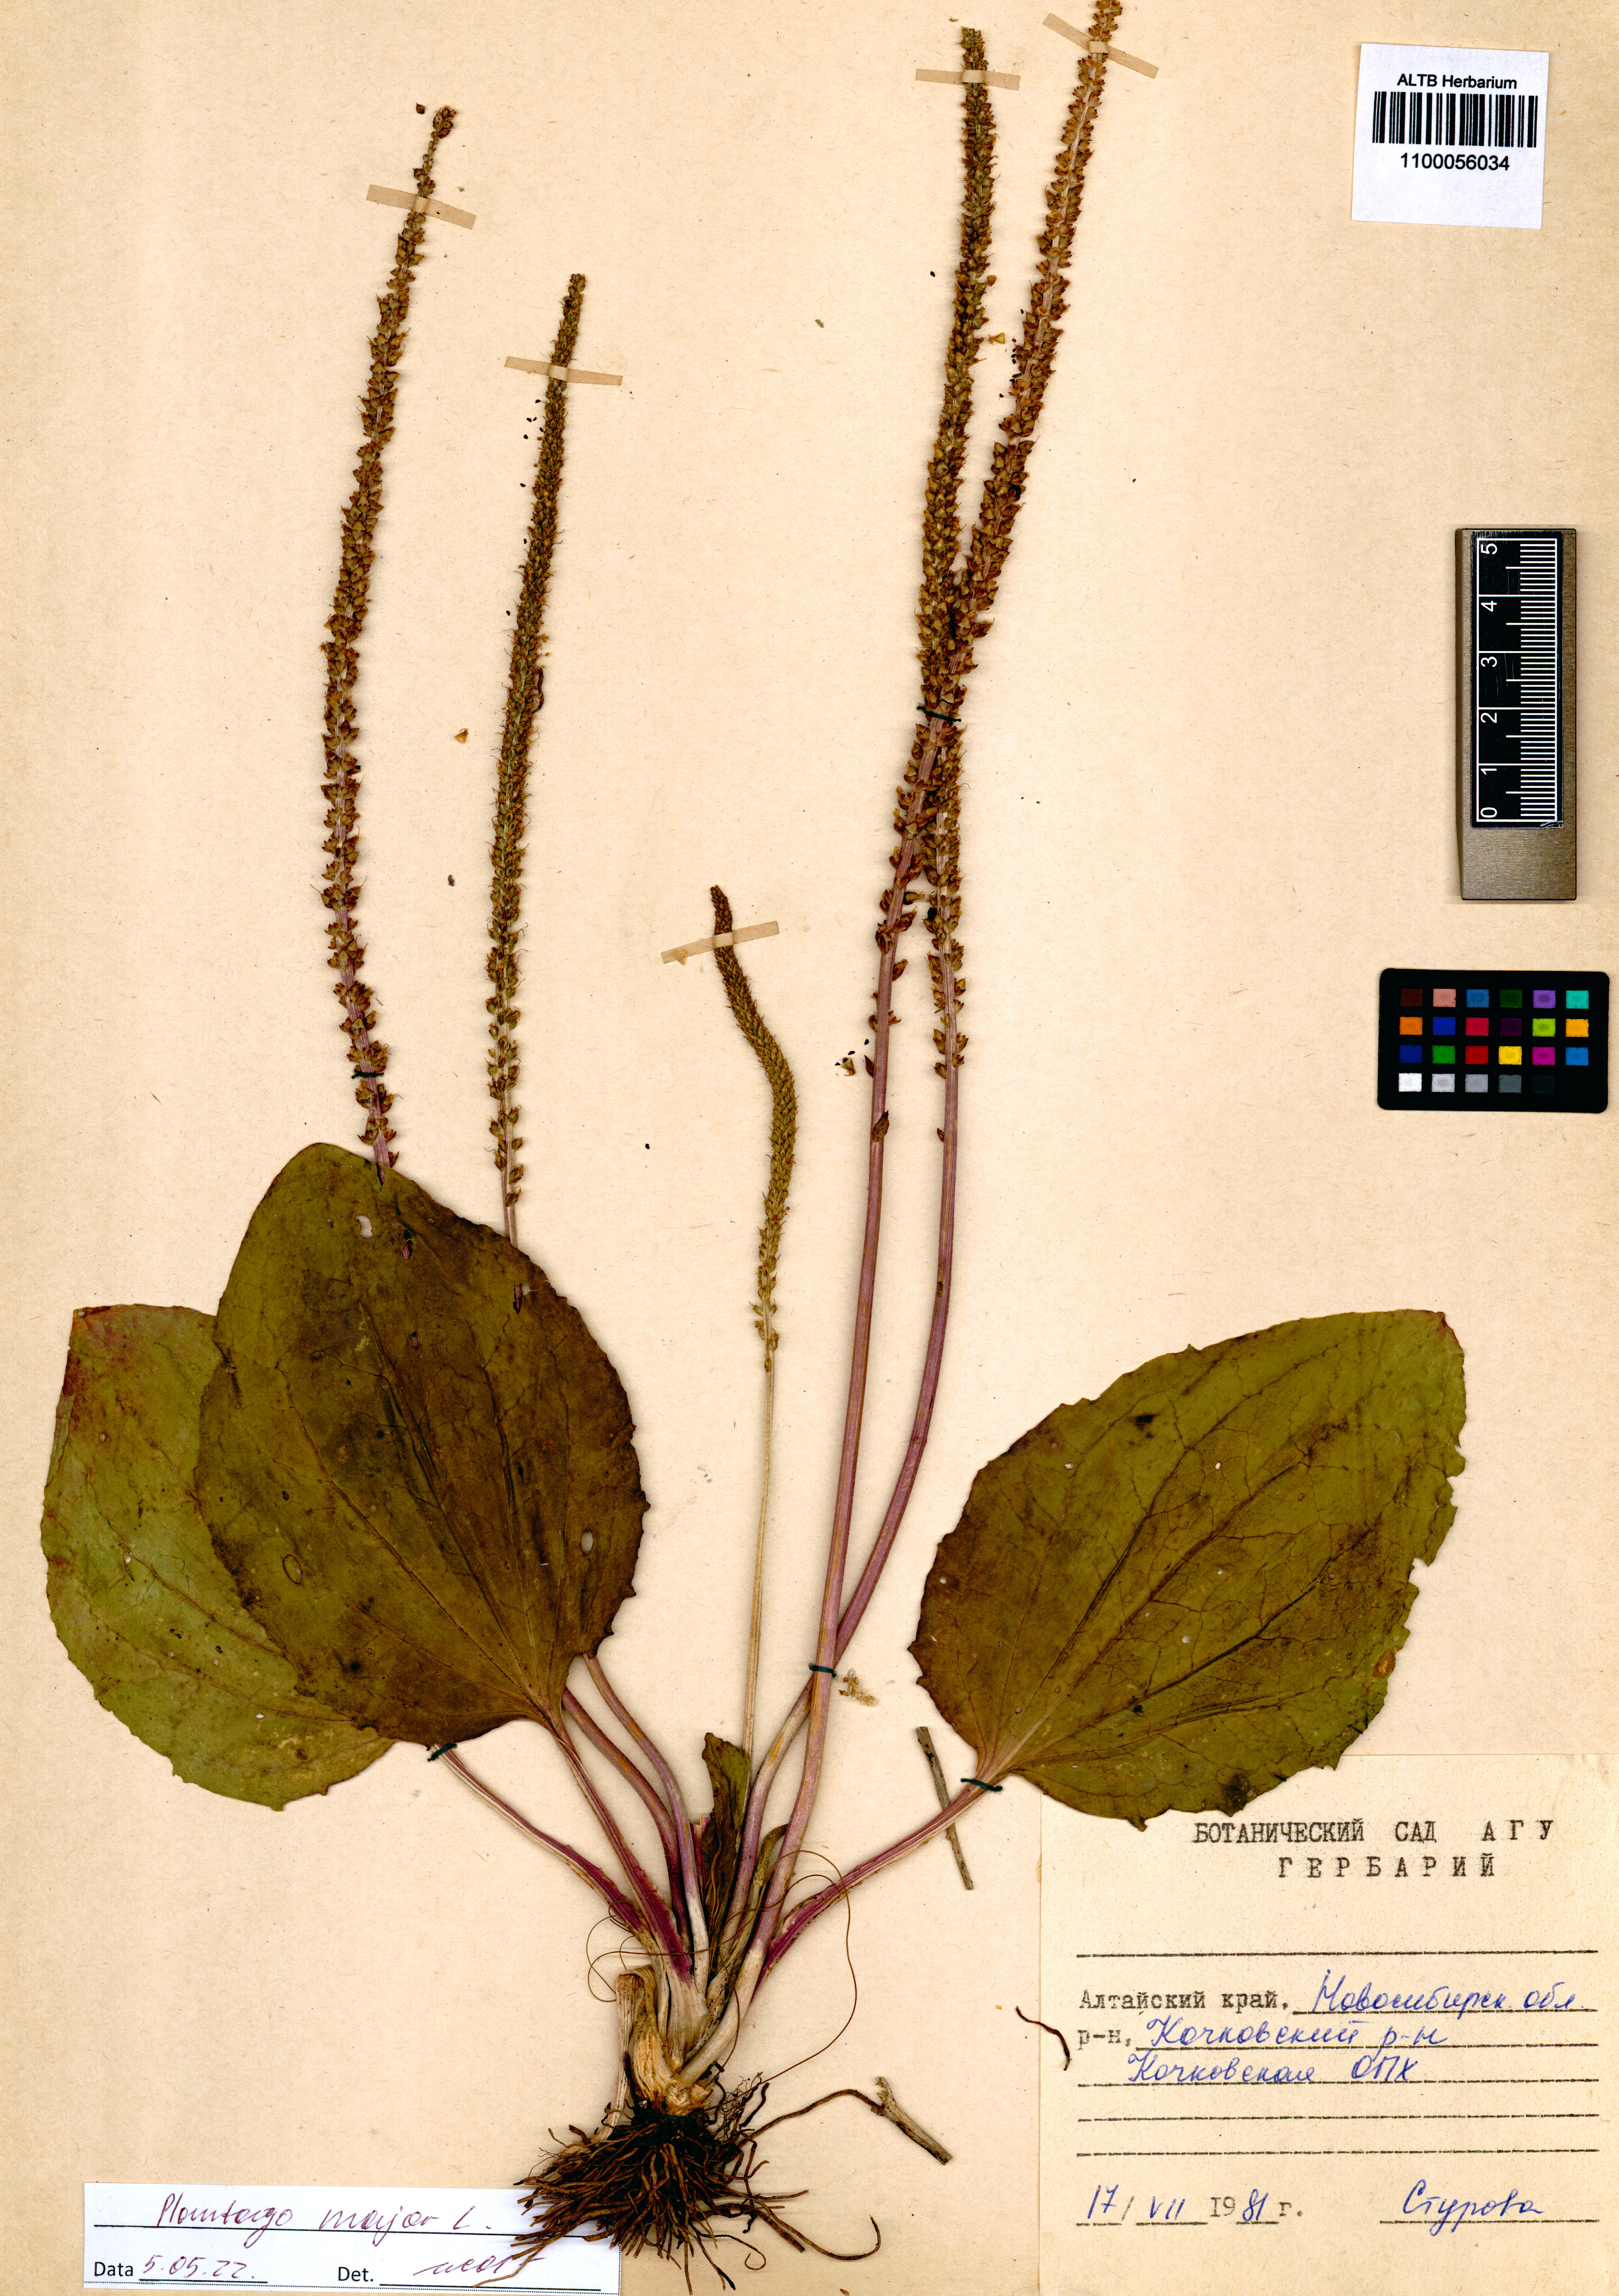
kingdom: Plantae
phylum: Tracheophyta
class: Magnoliopsida
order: Lamiales
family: Orobanchaceae
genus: Castilleja
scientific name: Castilleja pallida
